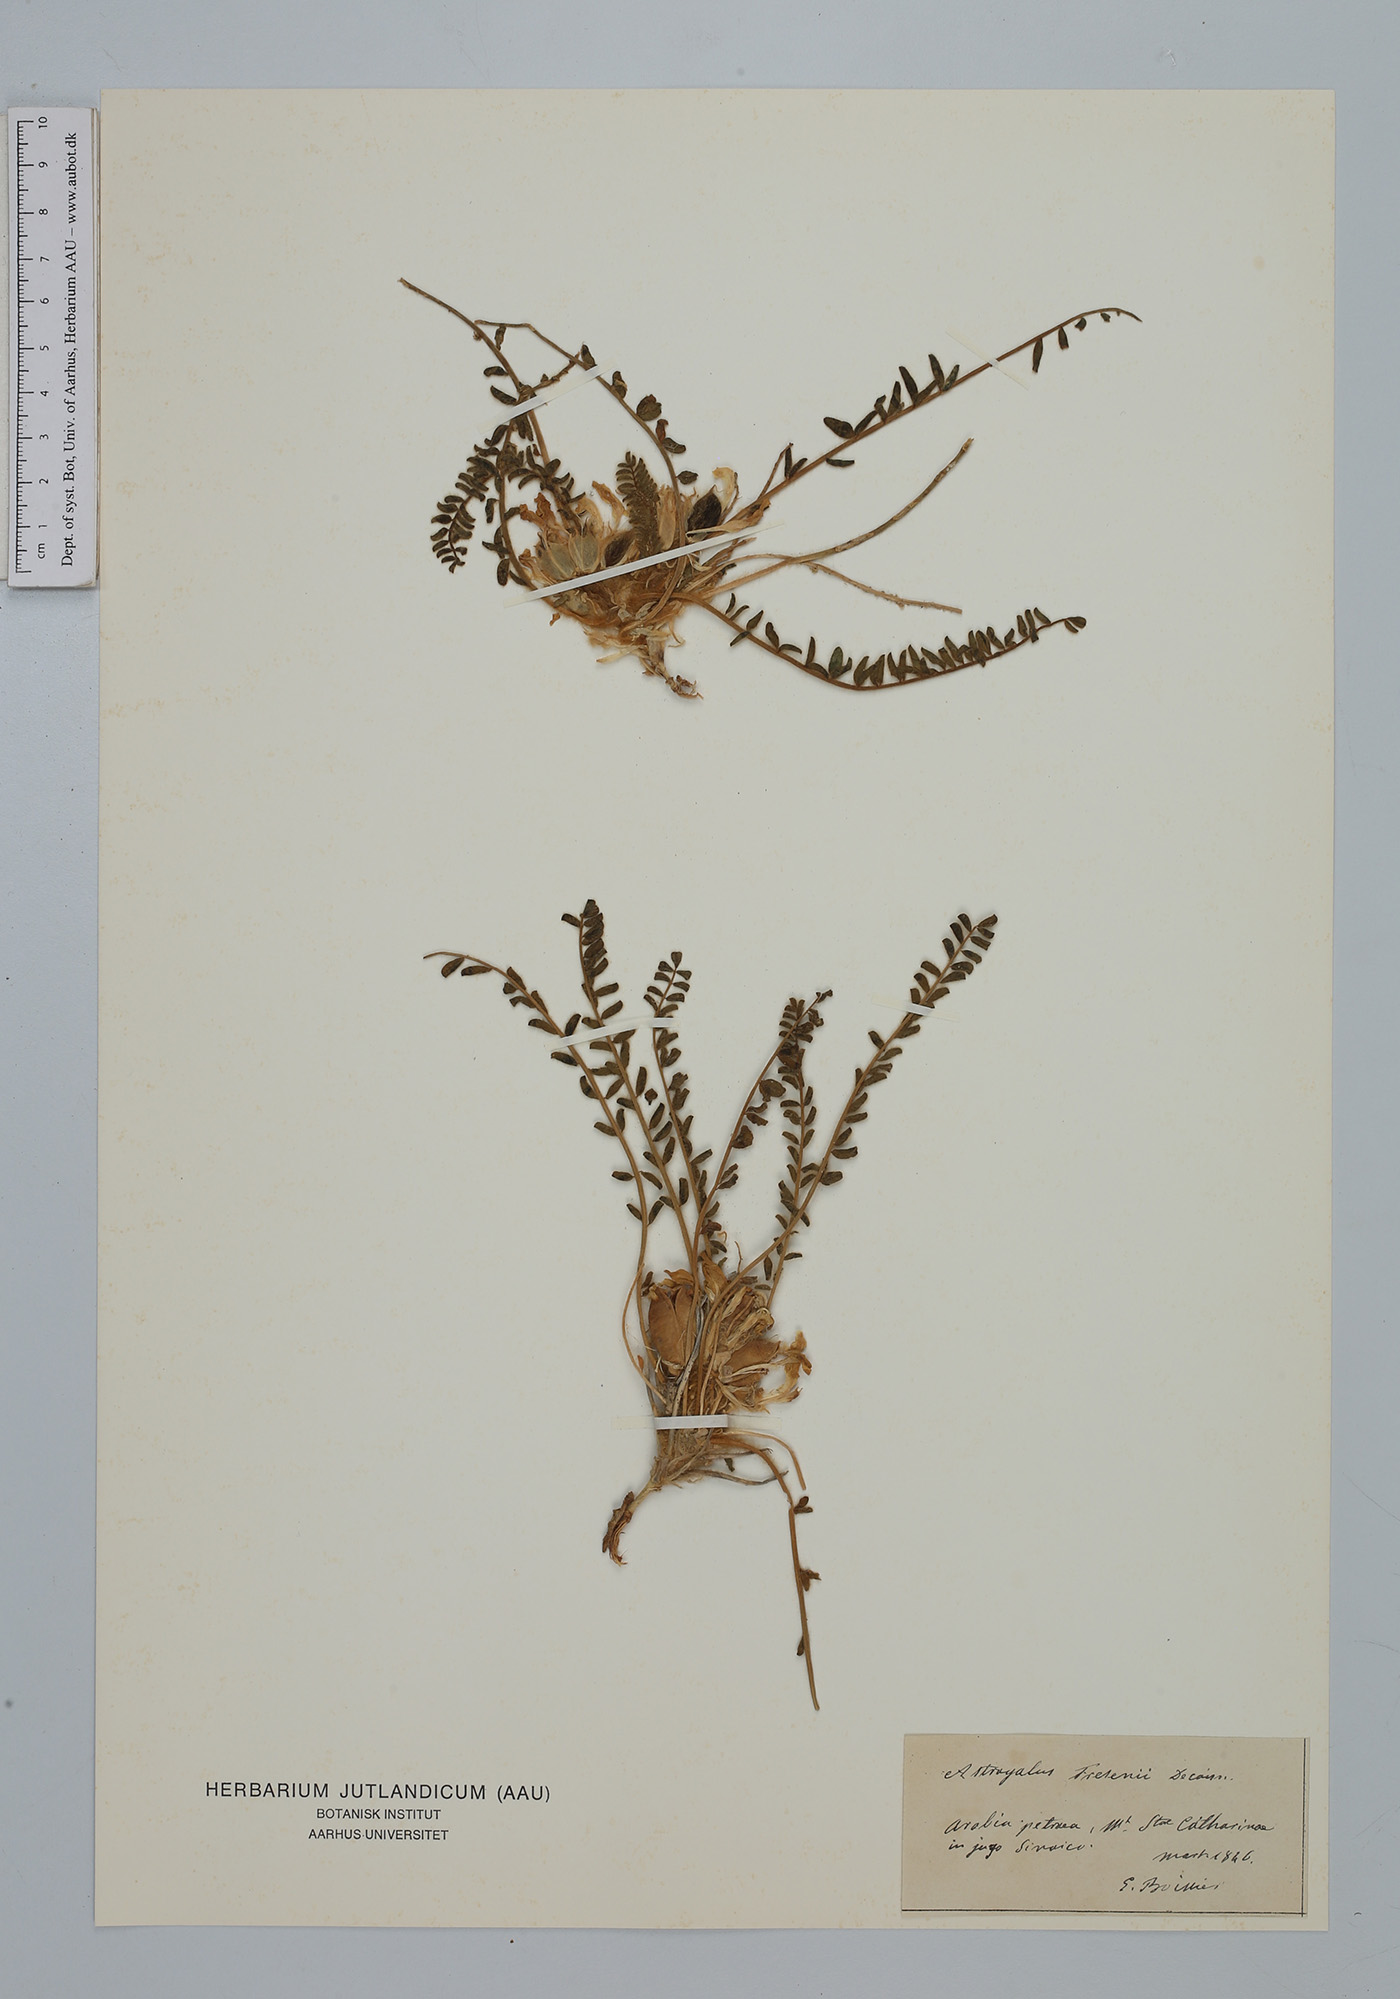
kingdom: Plantae
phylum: Tracheophyta
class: Magnoliopsida
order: Fabales
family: Fabaceae
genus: Astragalus
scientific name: Astragalus fresenii
